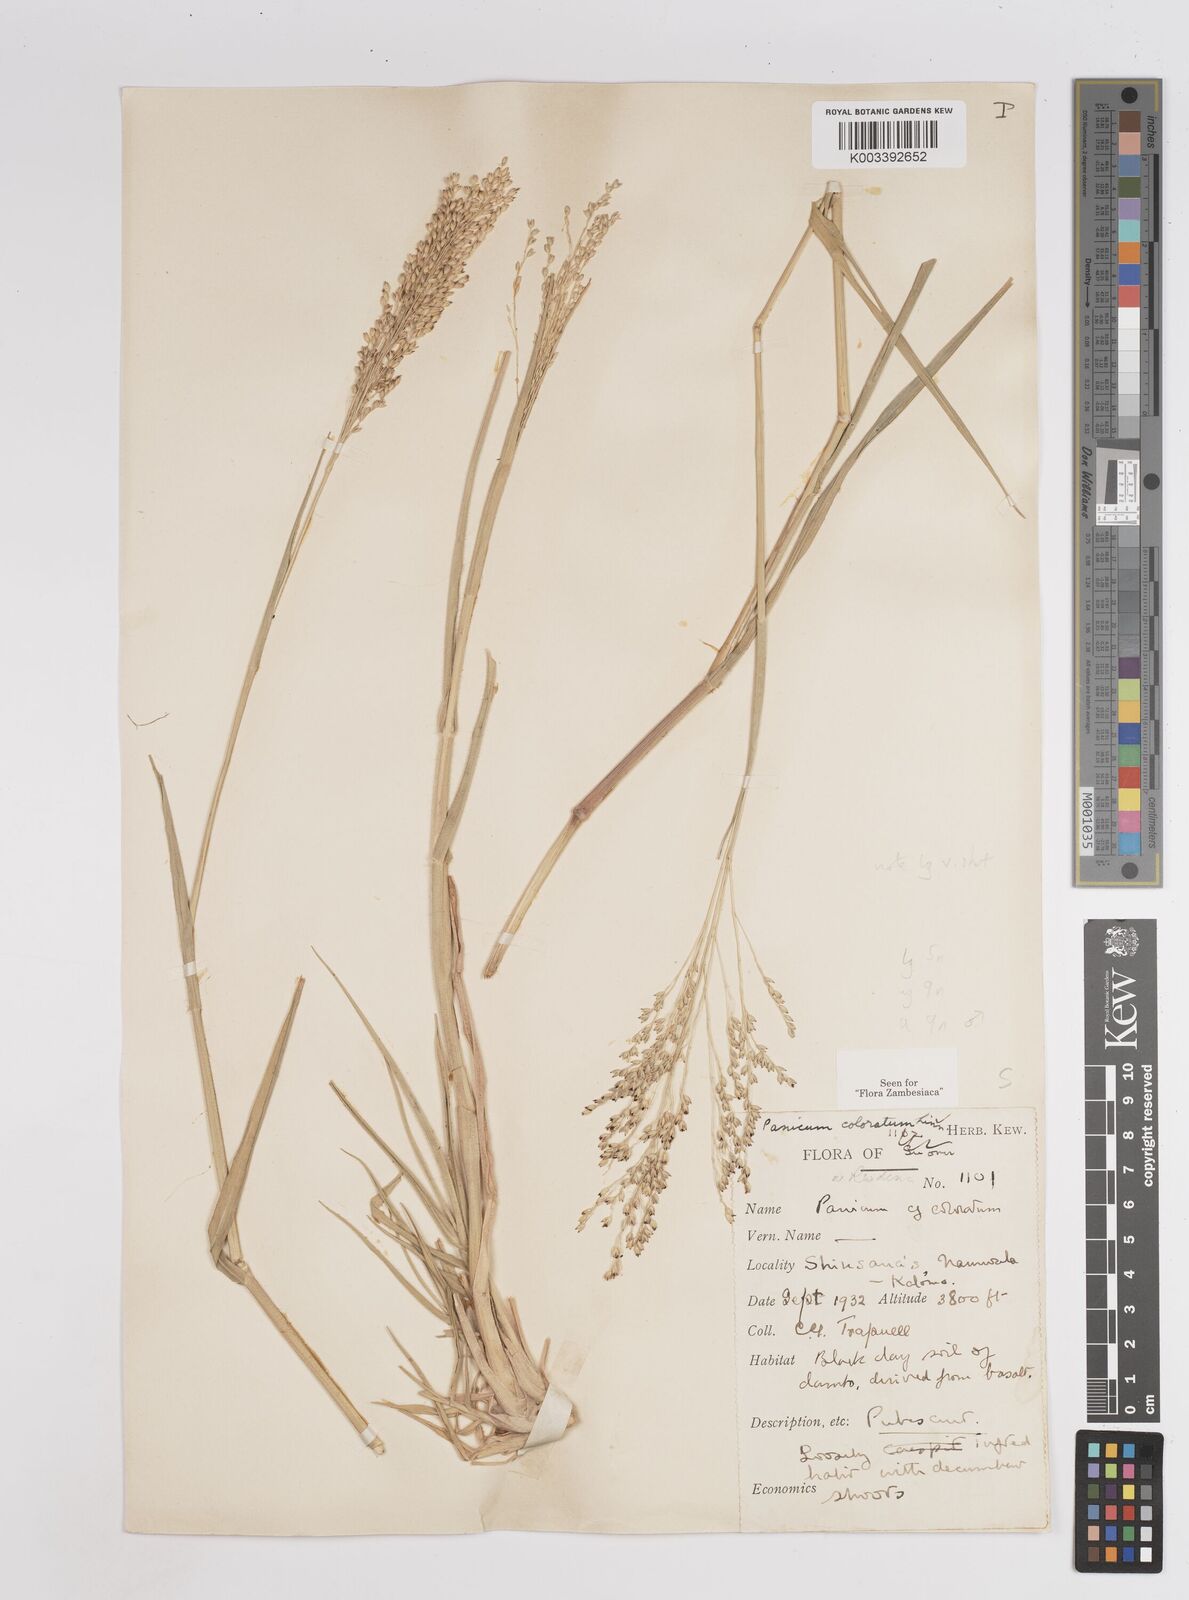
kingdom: Plantae
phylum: Tracheophyta
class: Liliopsida
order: Poales
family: Poaceae
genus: Panicum
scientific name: Panicum
